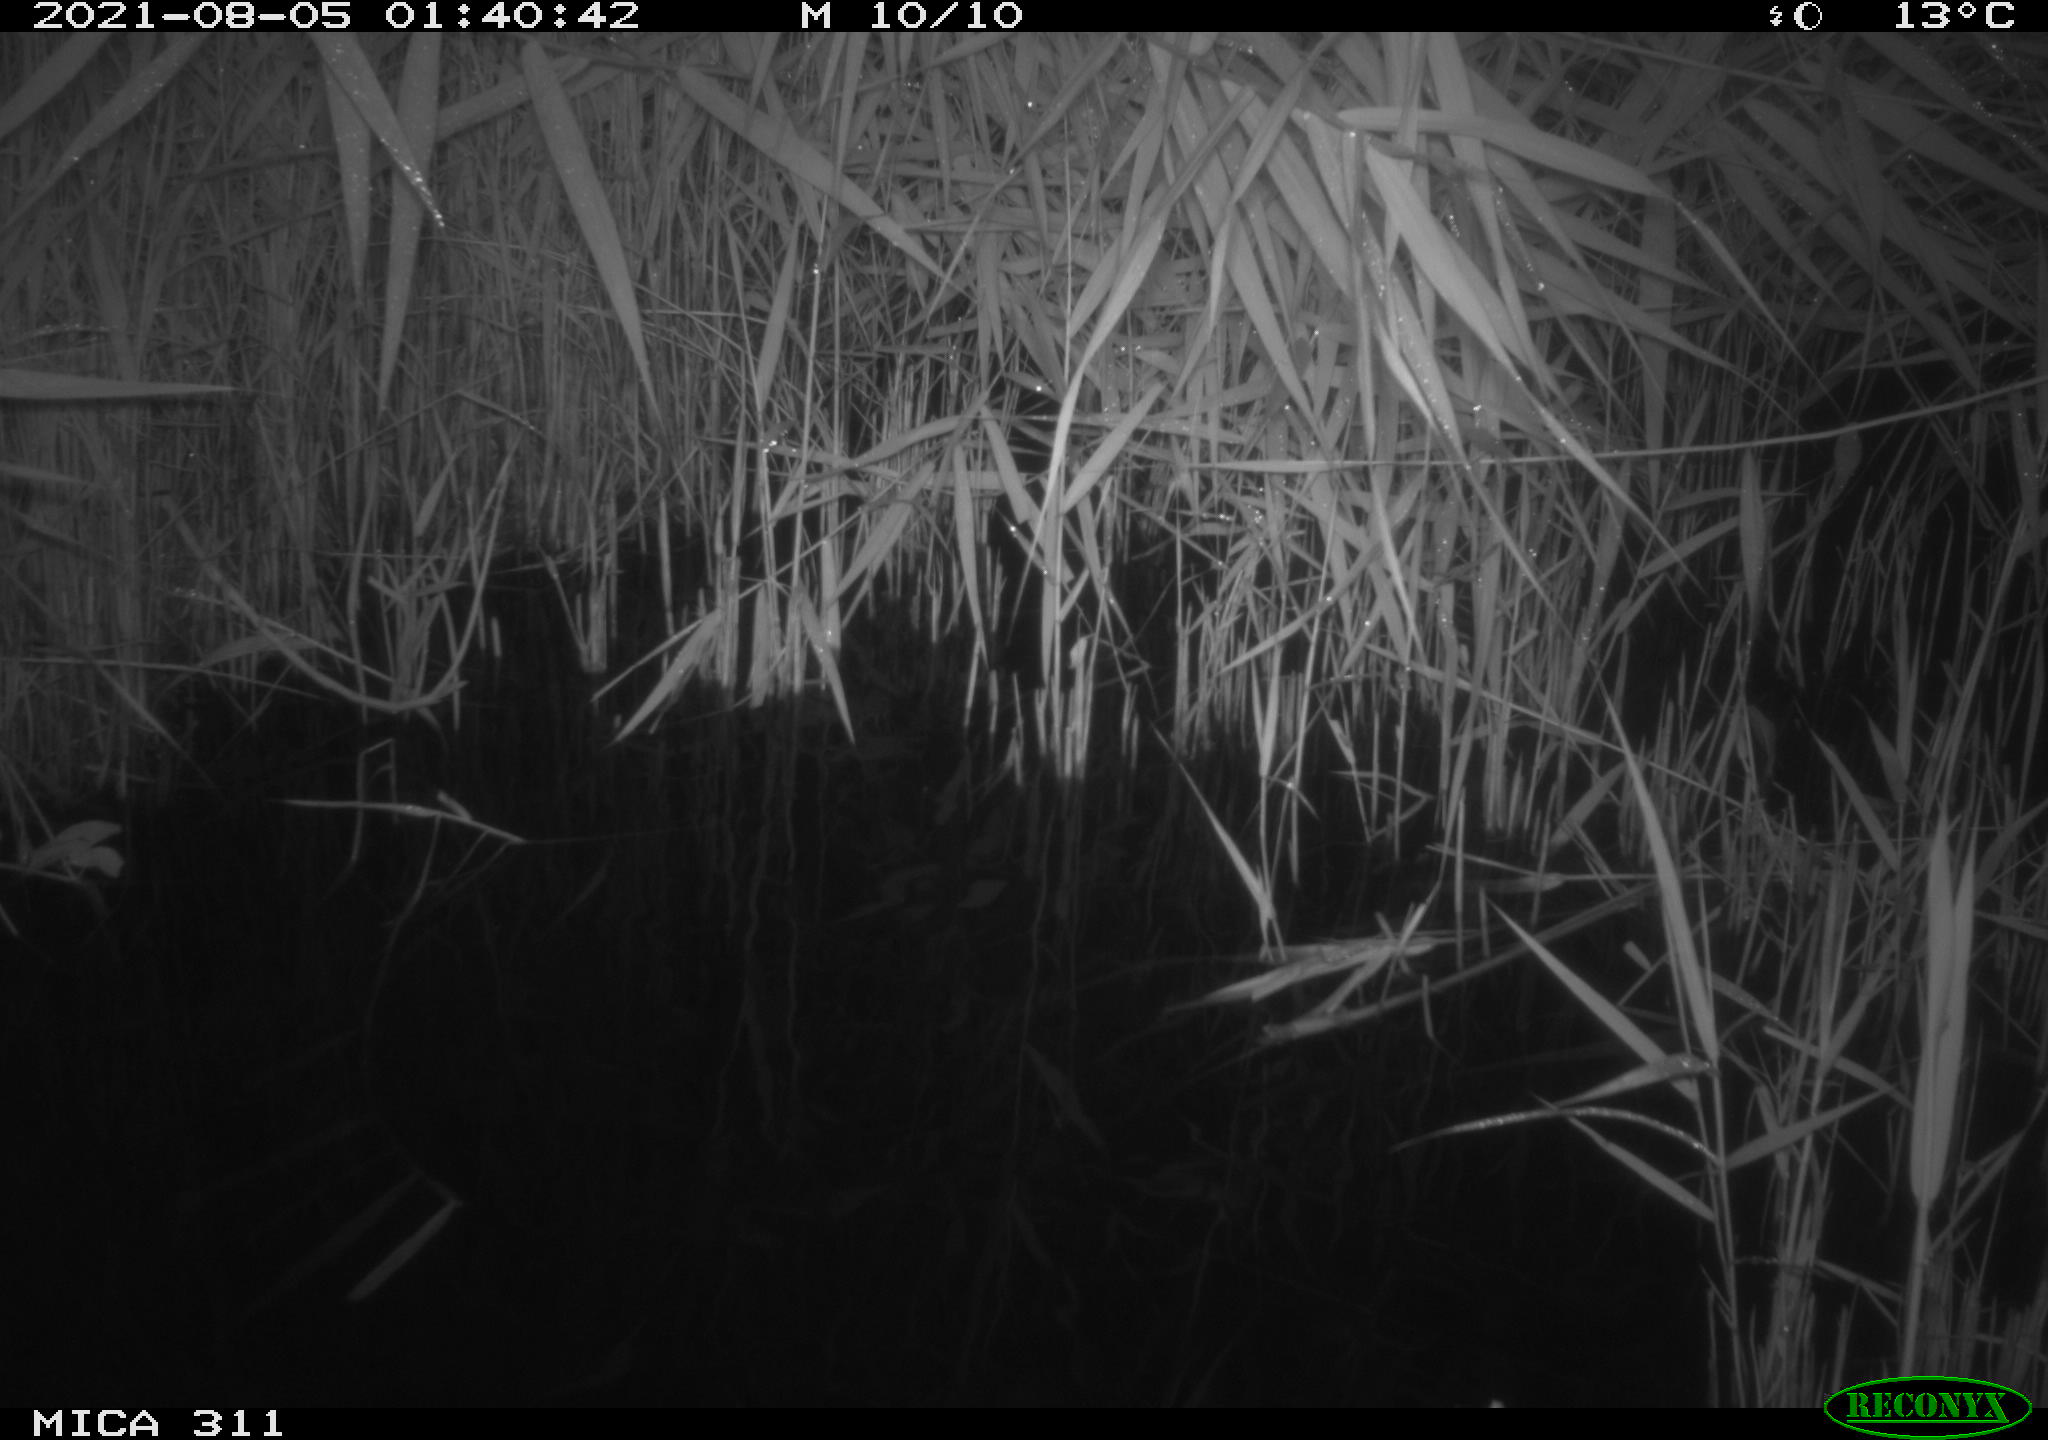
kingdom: Animalia
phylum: Chordata
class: Mammalia
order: Rodentia
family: Muridae
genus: Rattus
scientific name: Rattus norvegicus
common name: Brown rat
